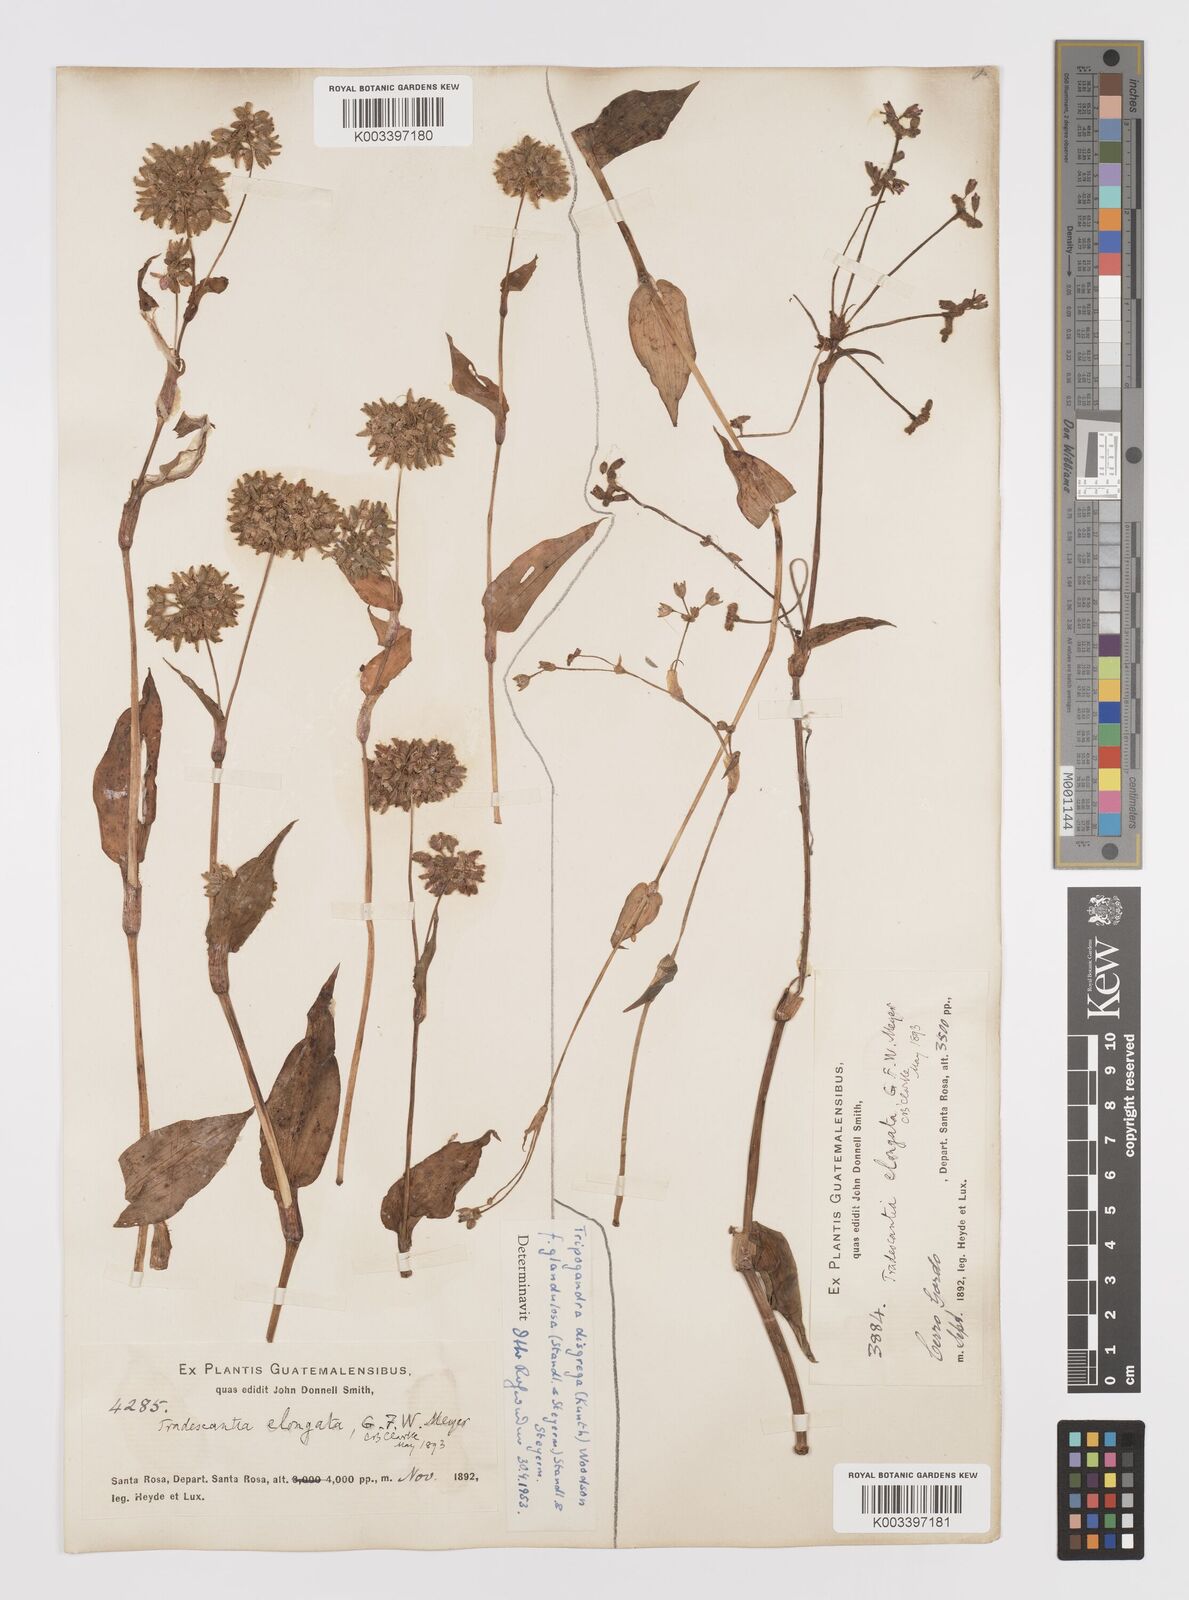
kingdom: Plantae
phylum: Tracheophyta
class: Liliopsida
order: Commelinales
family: Commelinaceae
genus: Callisia
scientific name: Callisia disgrega
